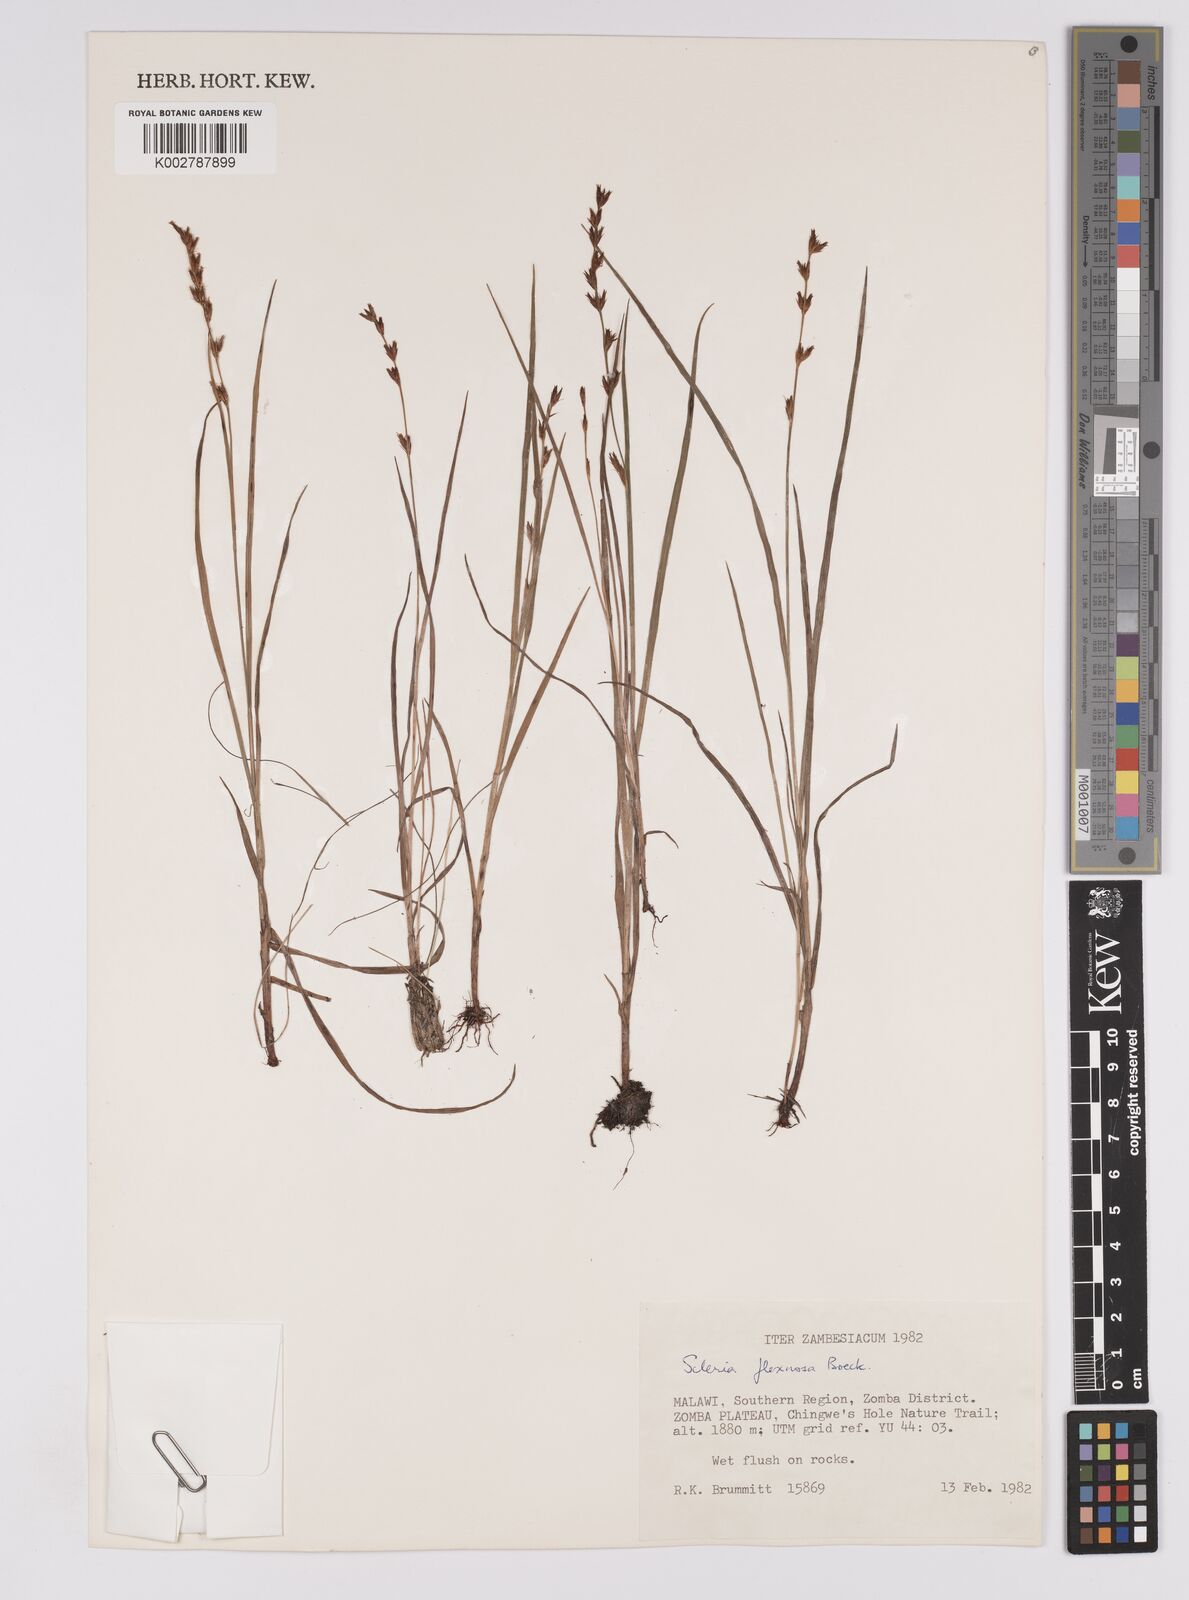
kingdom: Plantae
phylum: Tracheophyta
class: Liliopsida
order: Poales
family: Cyperaceae
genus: Scleria
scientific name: Scleria flexuosa
